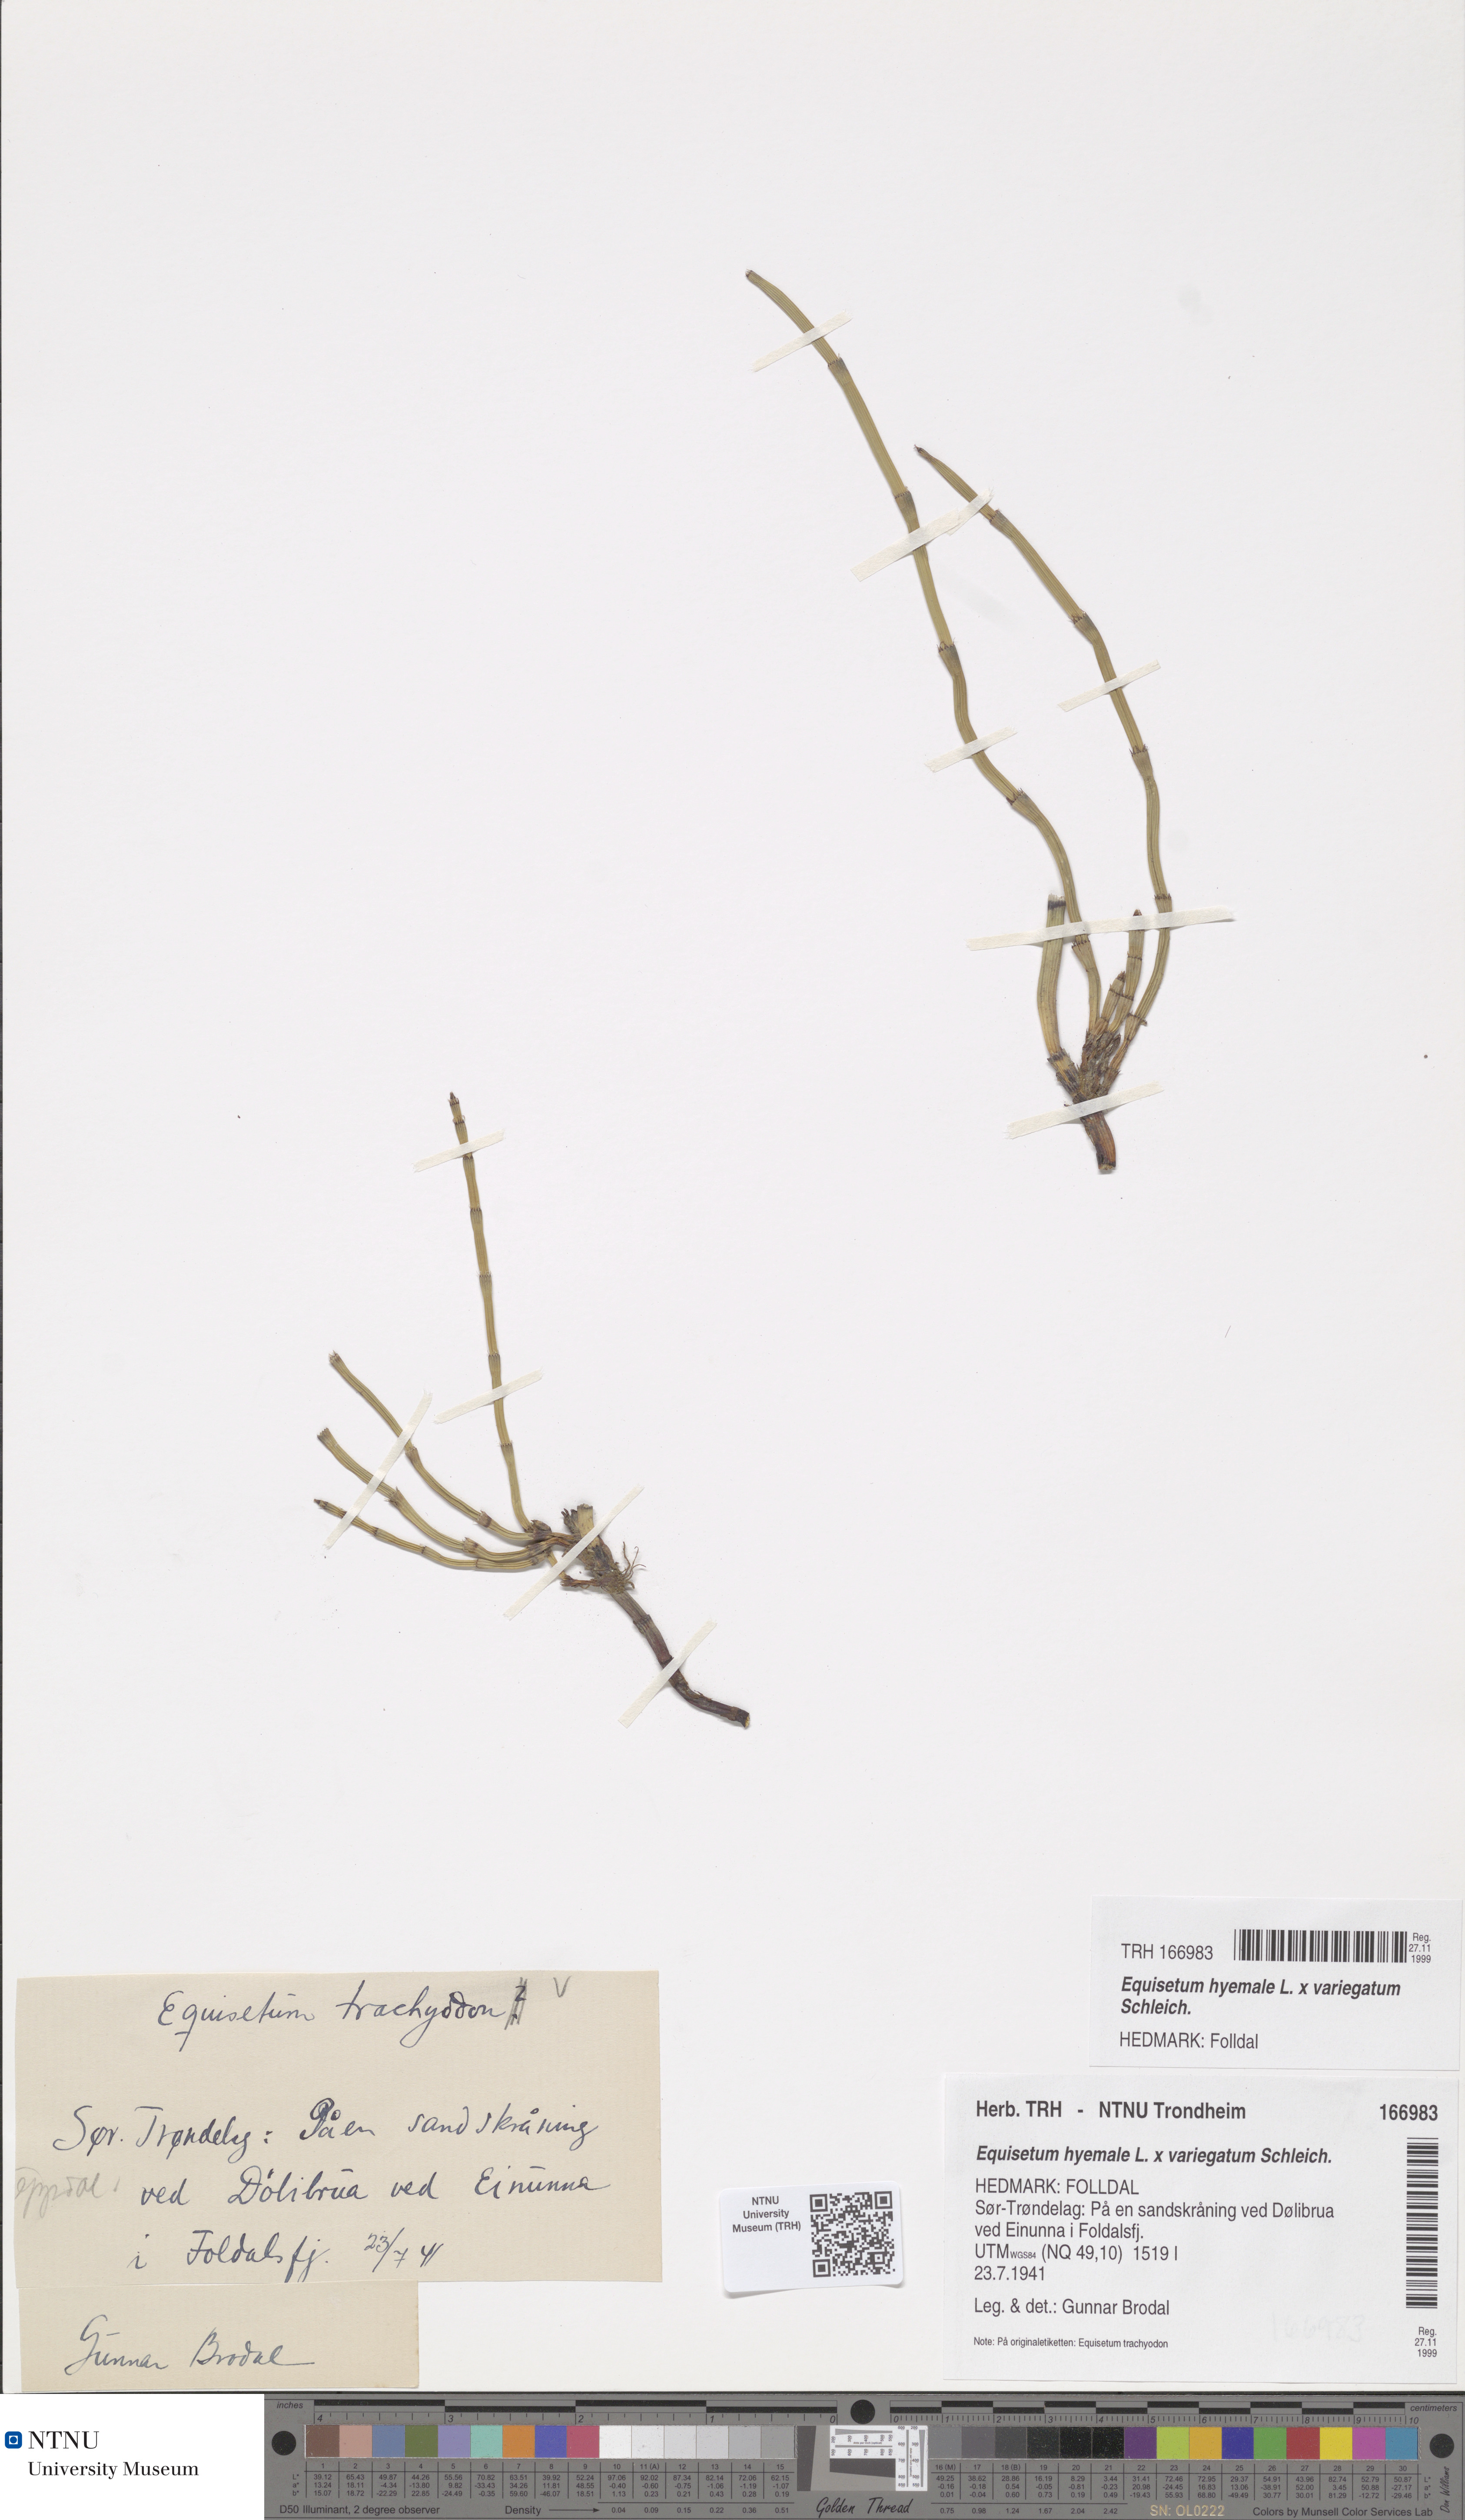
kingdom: Plantae
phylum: Tracheophyta
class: Polypodiopsida
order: Equisetales
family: Equisetaceae
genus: Equisetum
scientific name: Equisetum trachyodon
